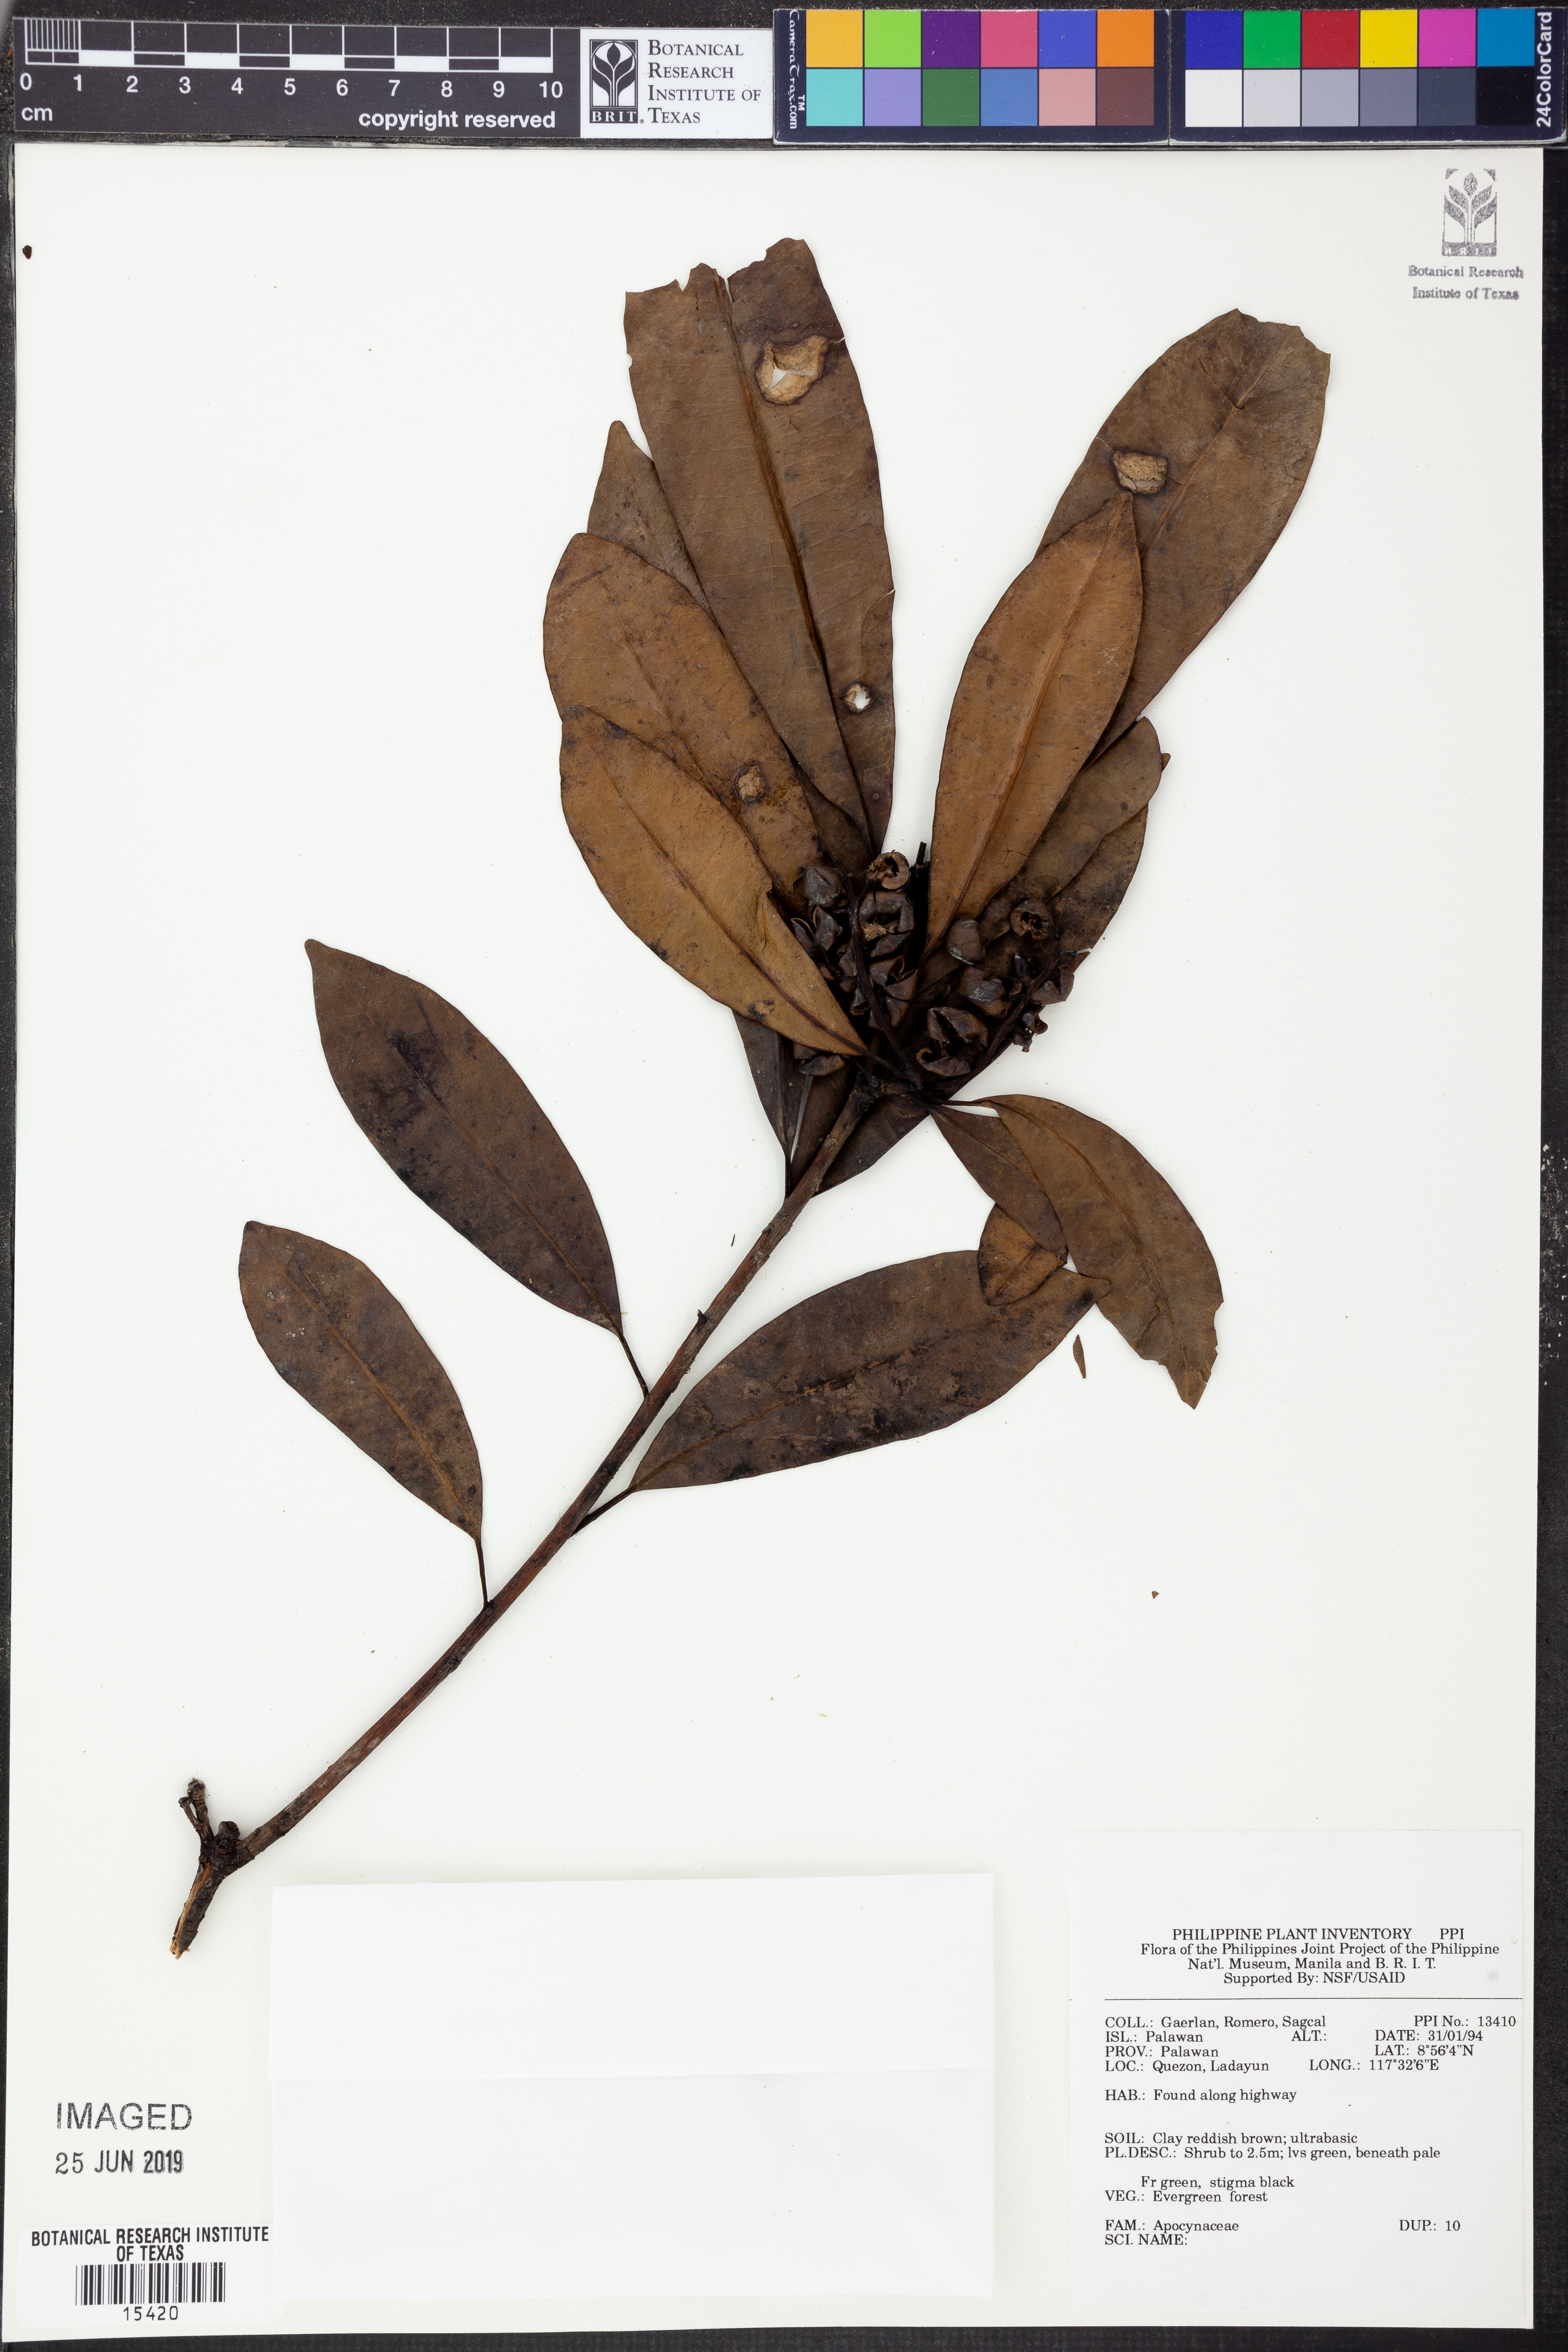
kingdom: Plantae
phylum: Tracheophyta
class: Magnoliopsida
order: Gentianales
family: Apocynaceae
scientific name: Apocynaceae
